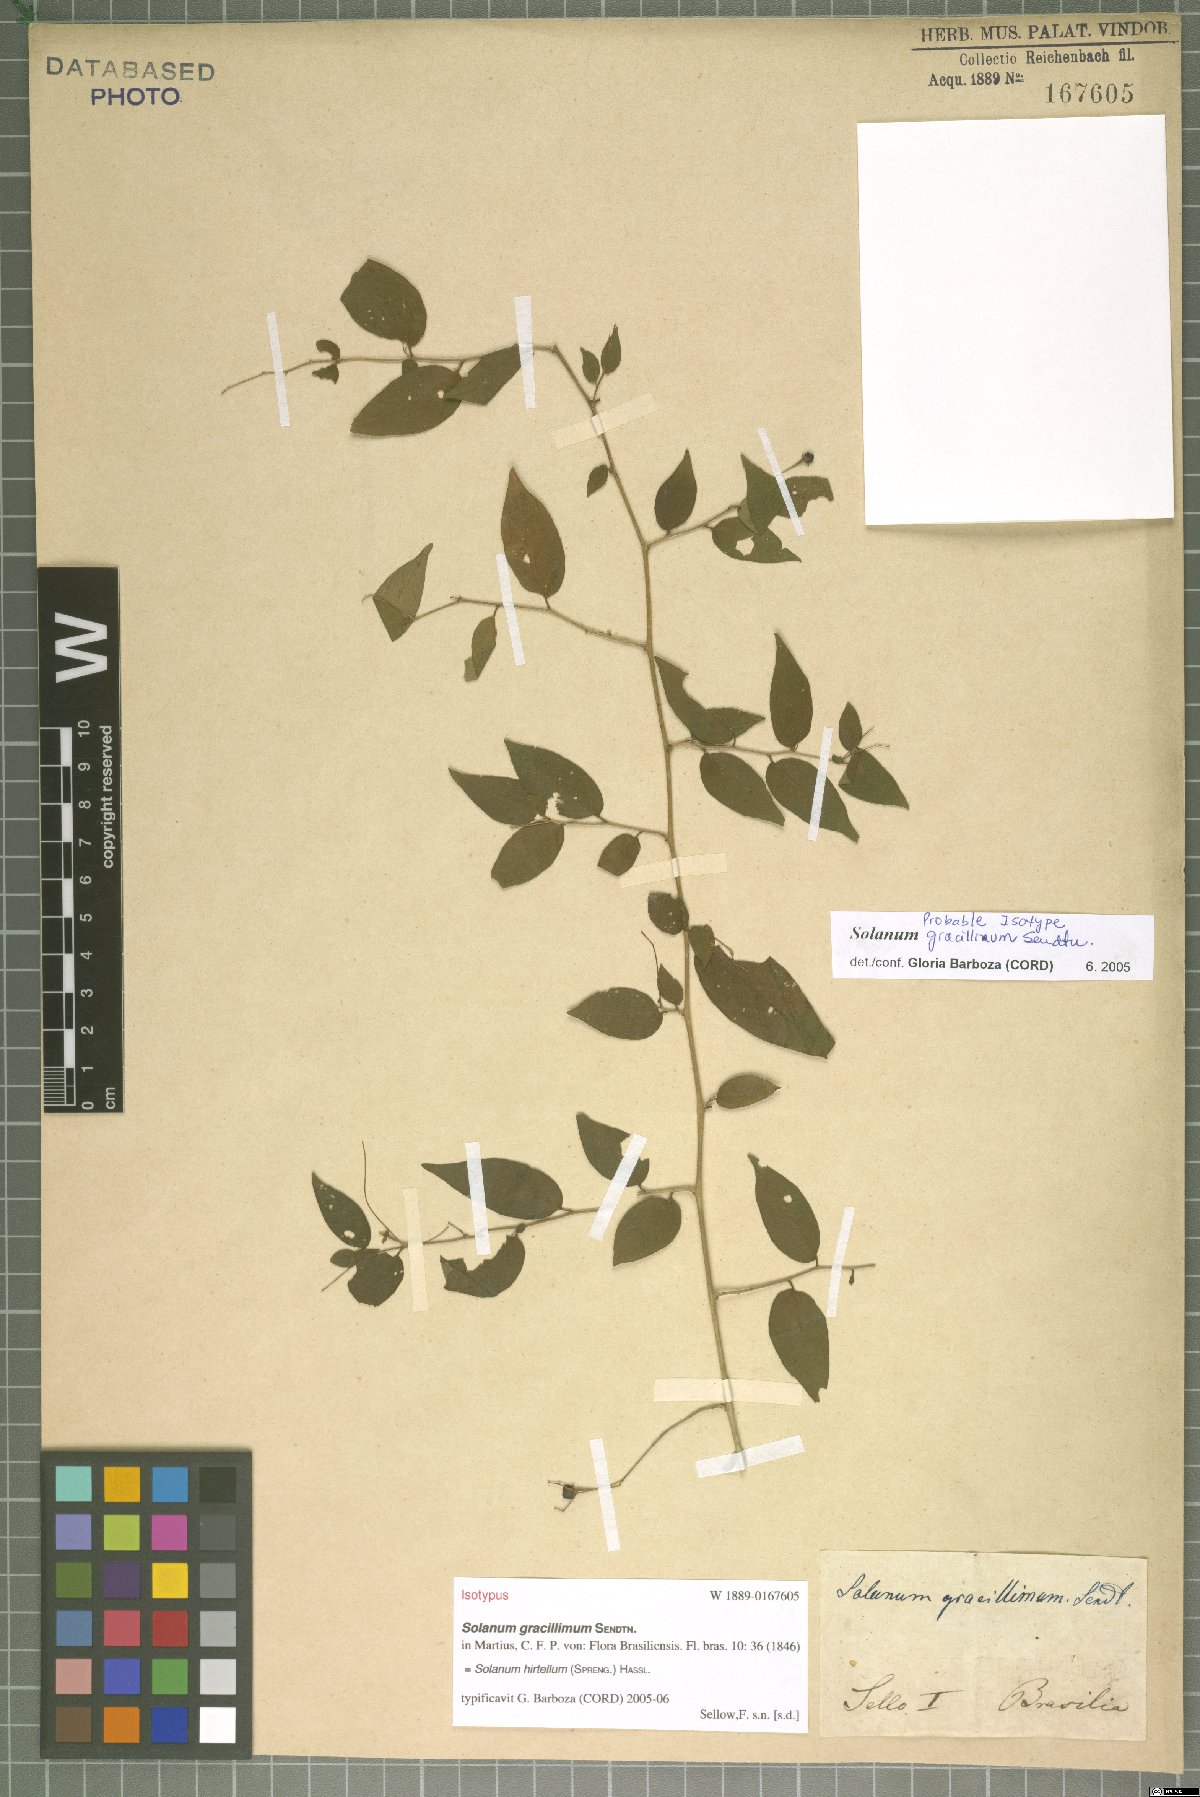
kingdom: Plantae
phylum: Tracheophyta
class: Magnoliopsida
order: Solanales
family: Solanaceae
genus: Solanum
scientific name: Solanum hirtellum
